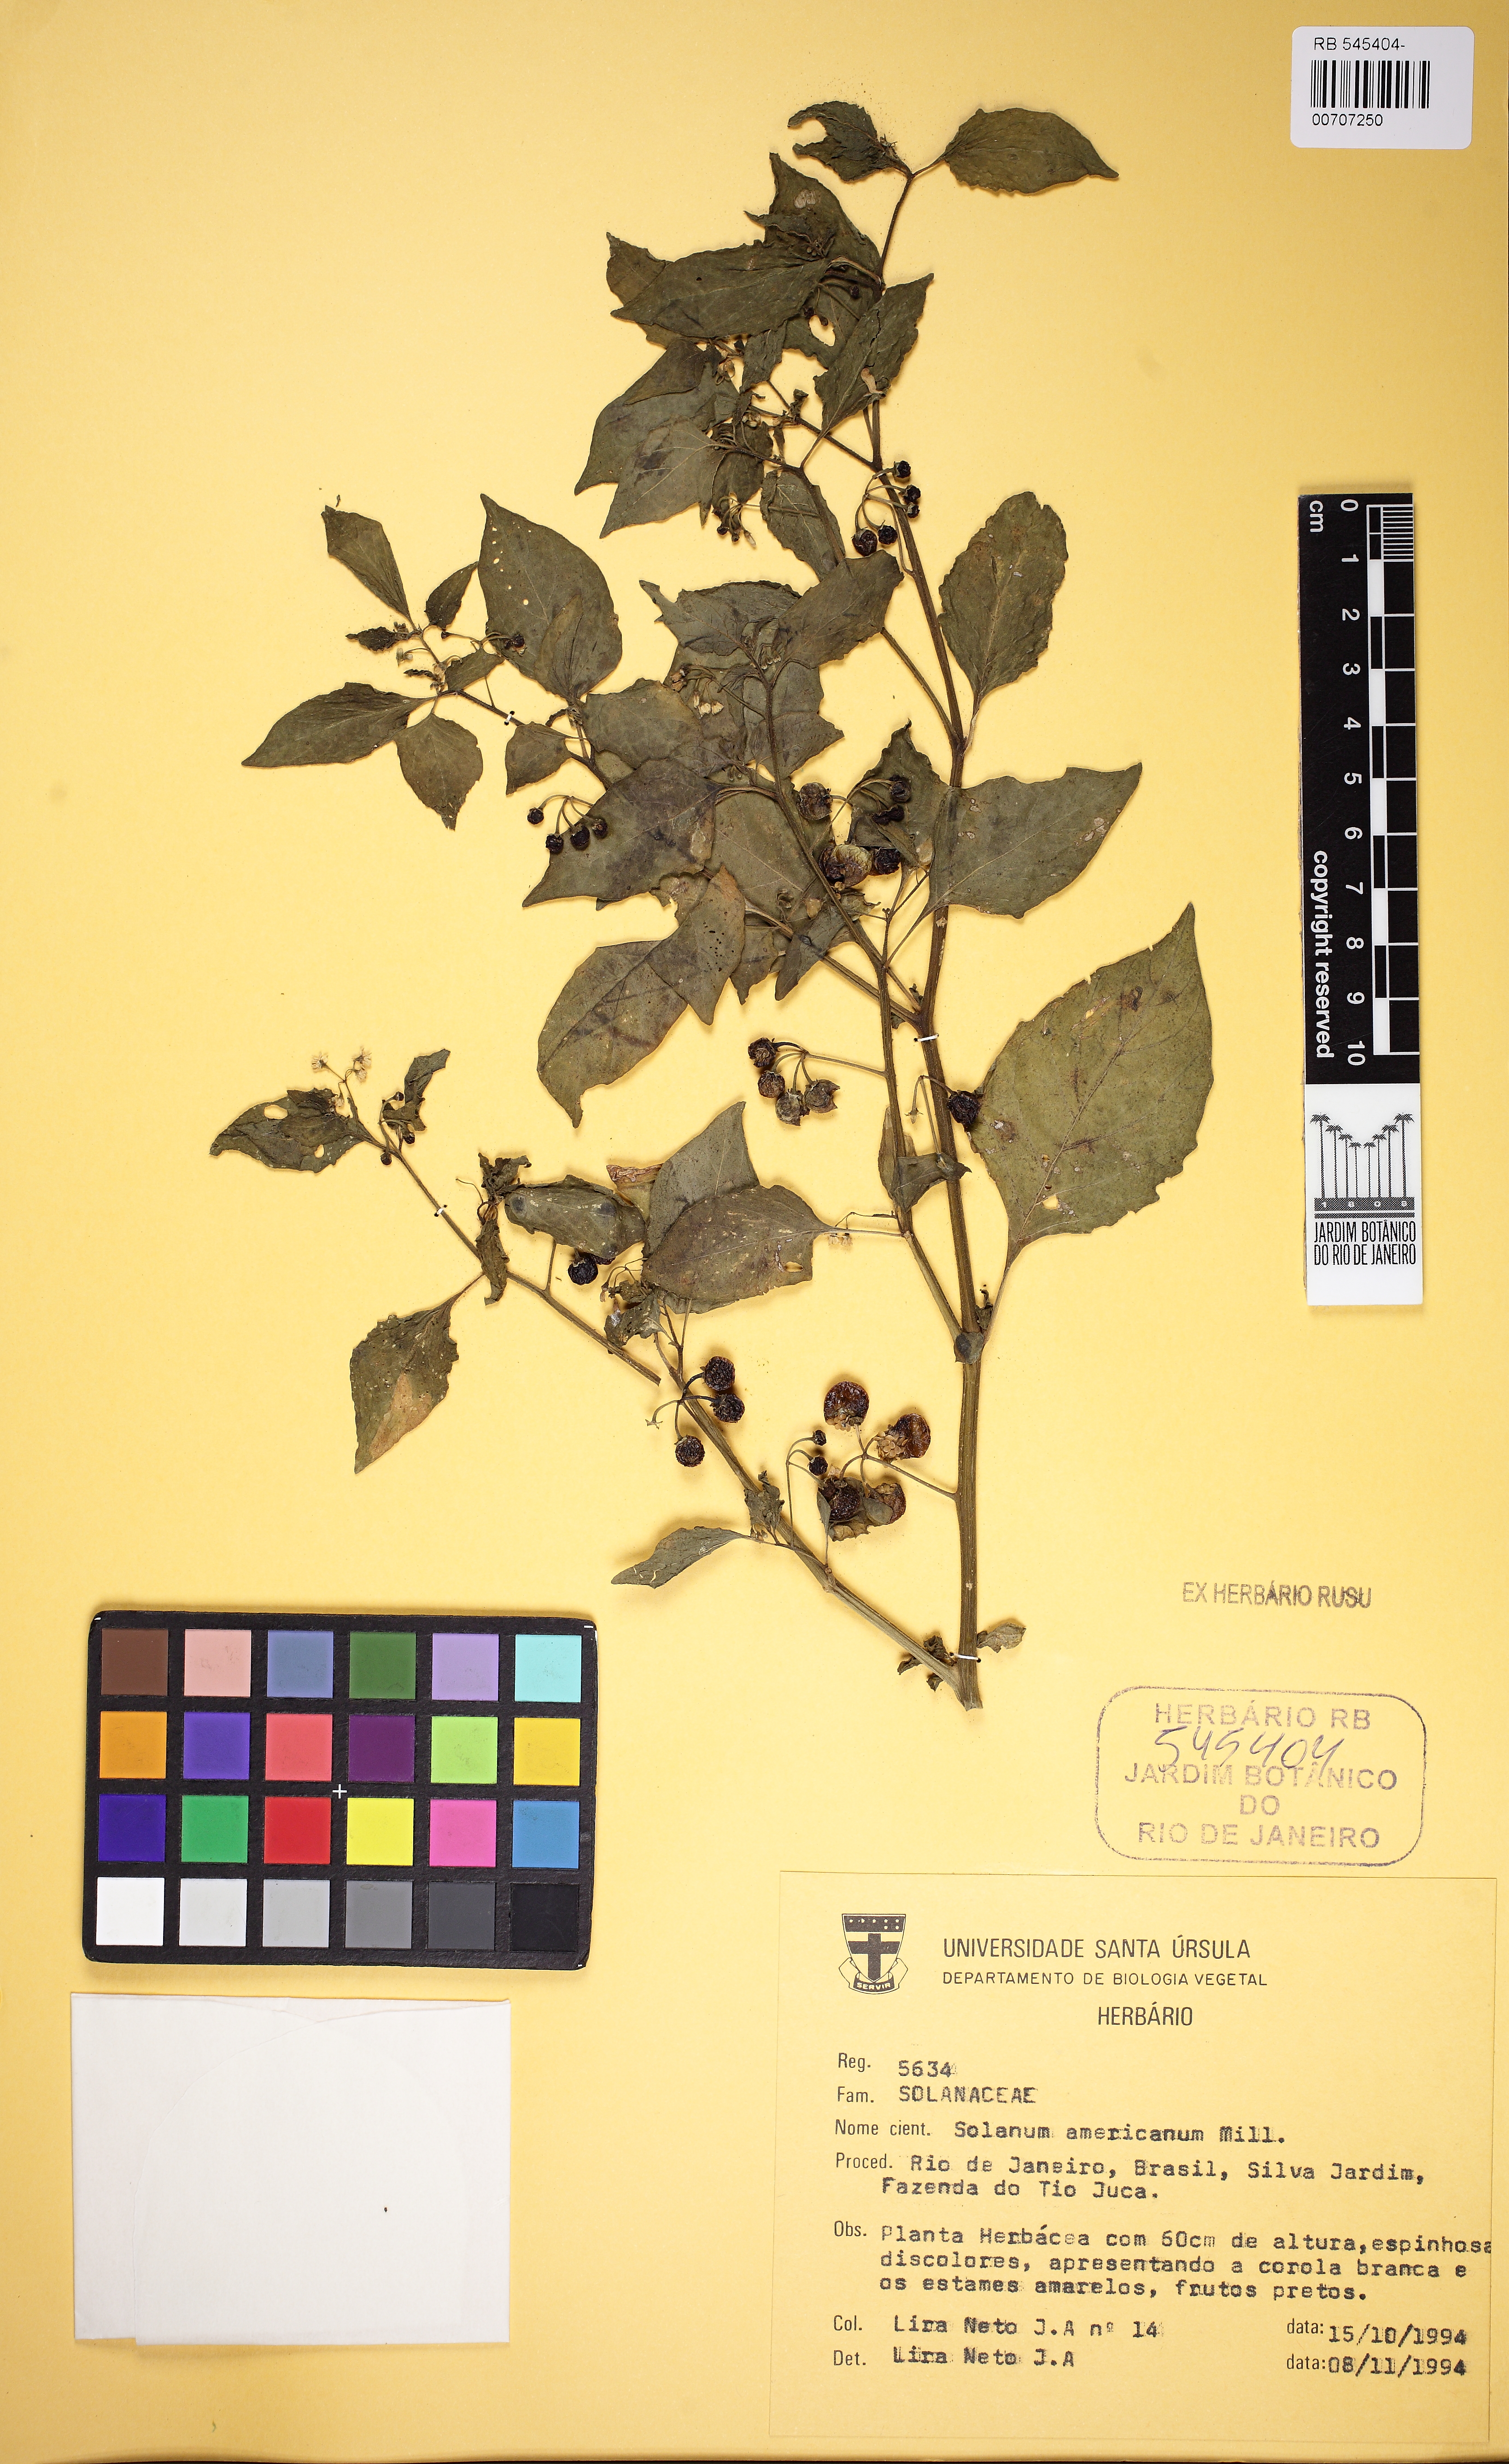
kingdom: Plantae
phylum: Tracheophyta
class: Magnoliopsida
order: Solanales
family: Solanaceae
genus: Solanum
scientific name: Solanum americanum
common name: American black nightshade
